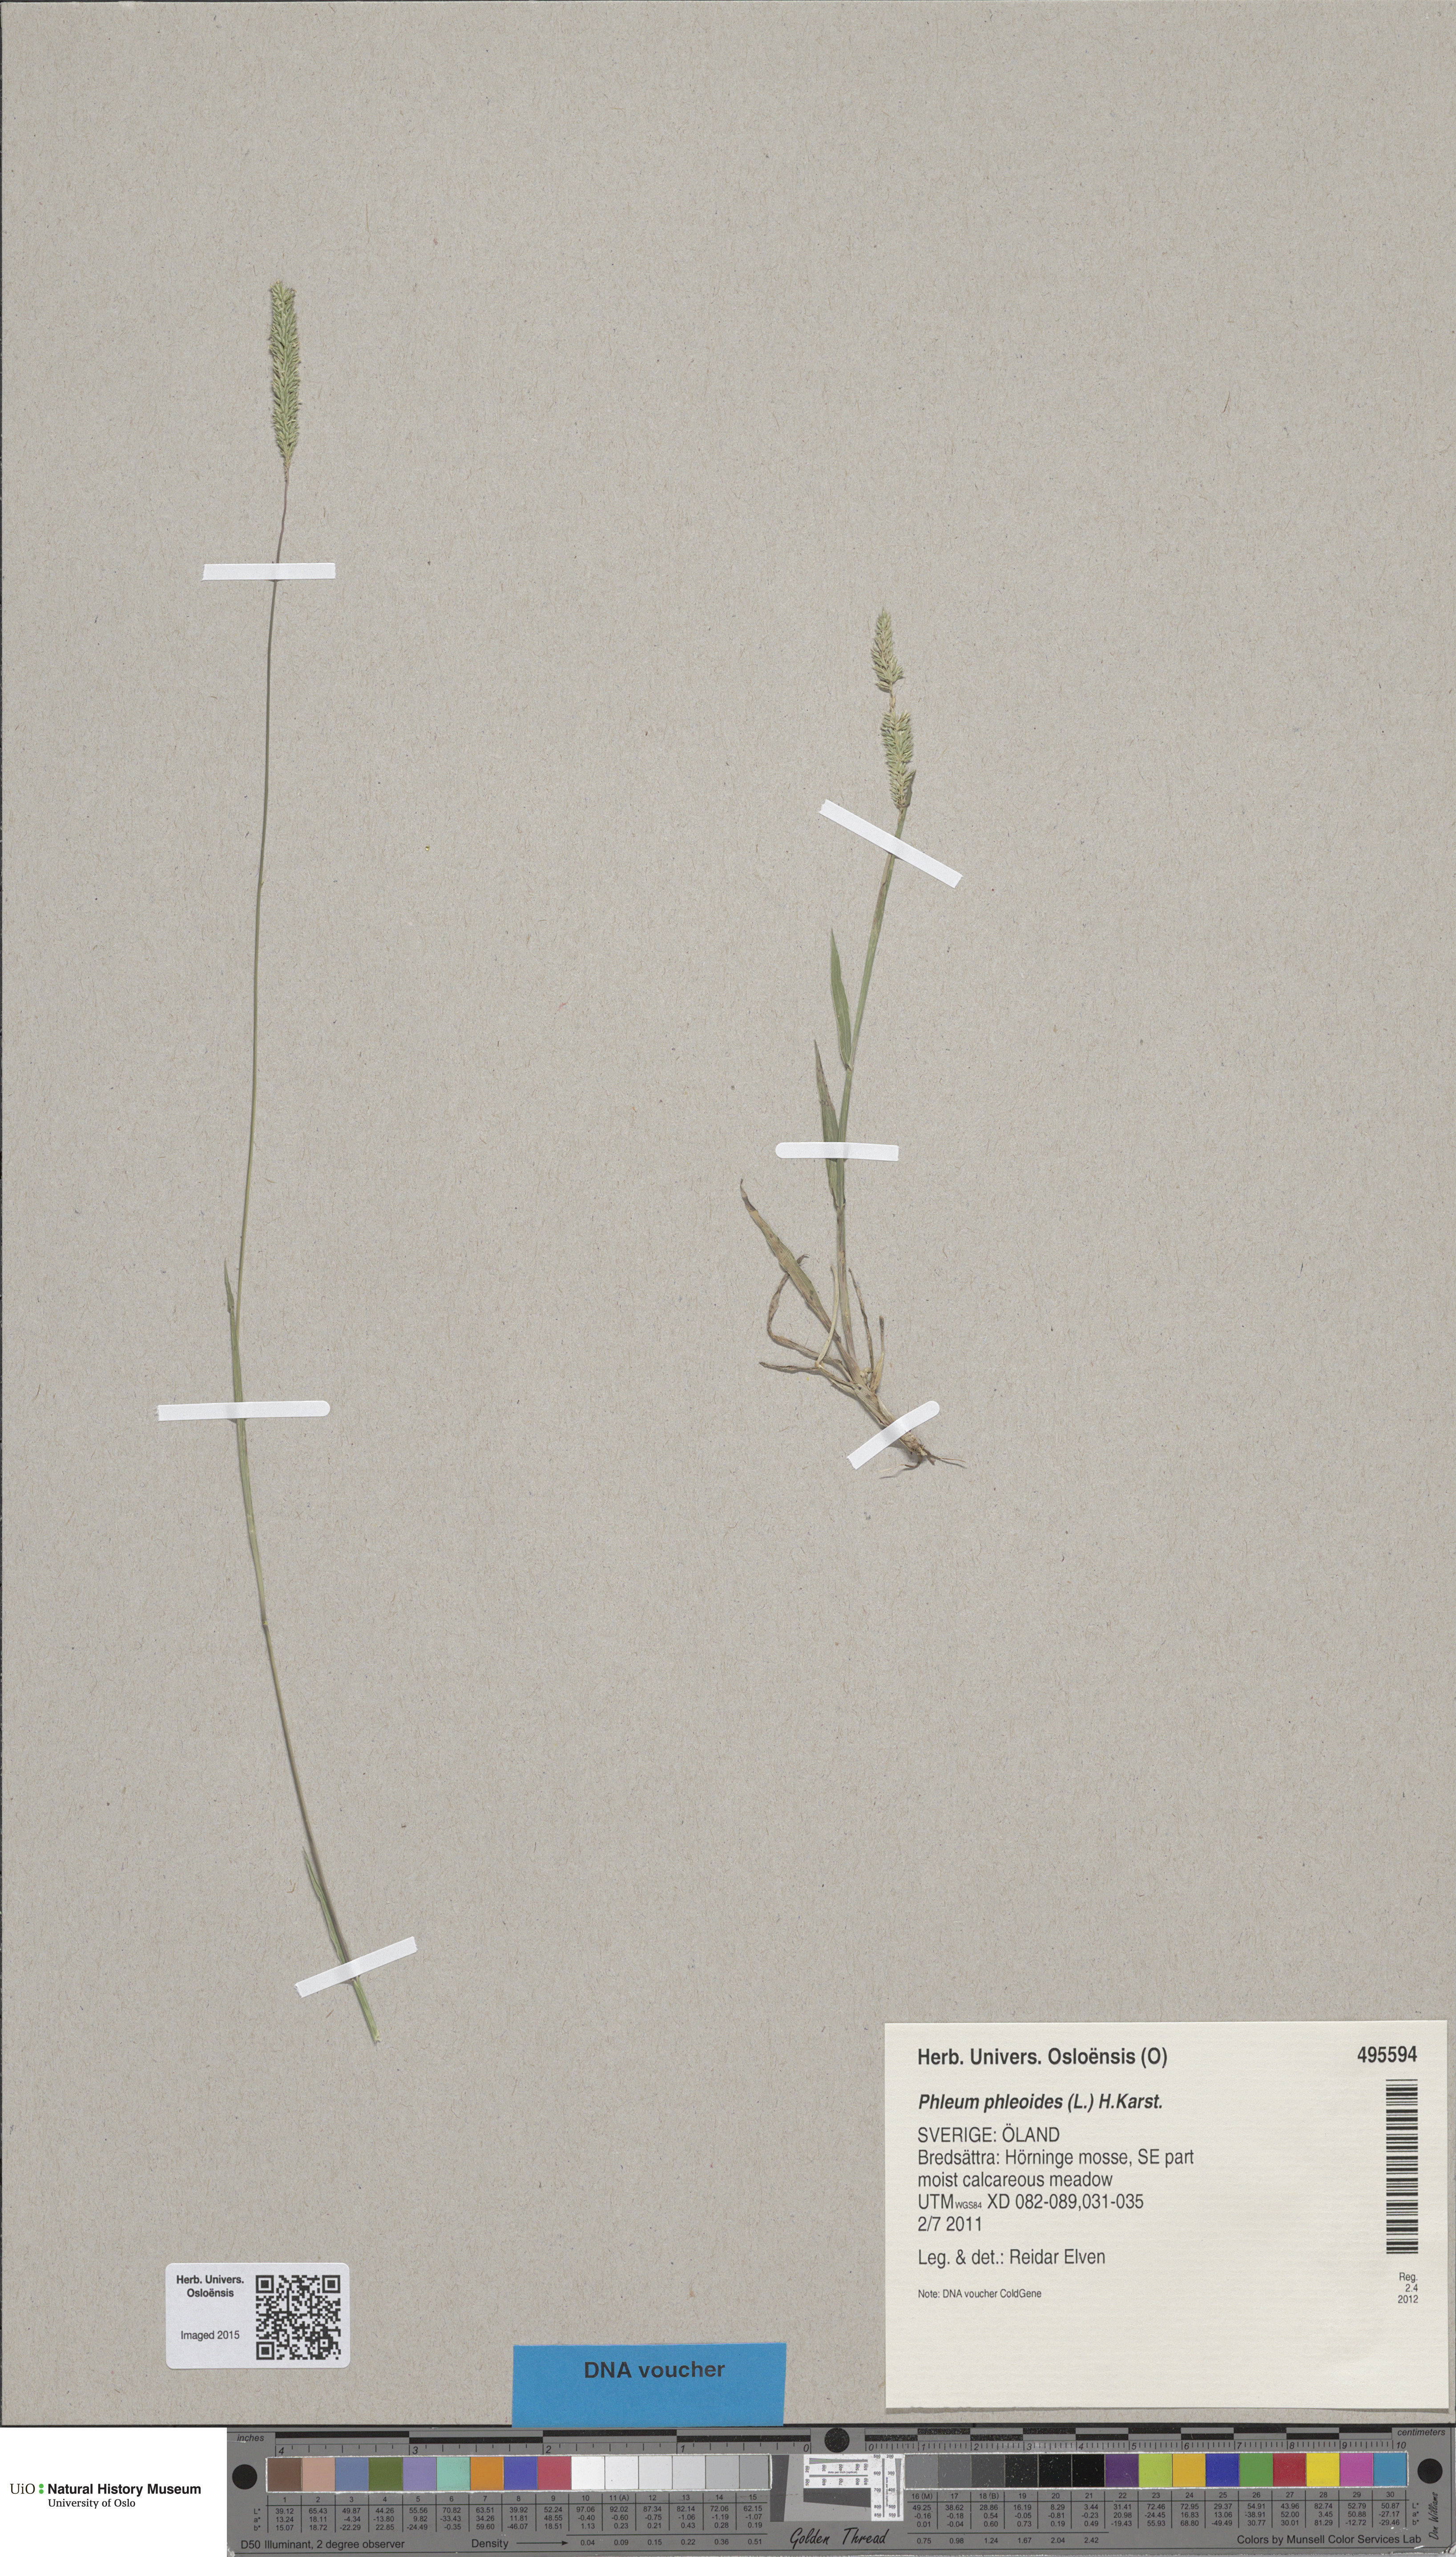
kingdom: Plantae
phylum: Tracheophyta
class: Liliopsida
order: Poales
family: Poaceae
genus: Phleum
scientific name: Phleum phleoides
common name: Purple-stem cat's-tail
